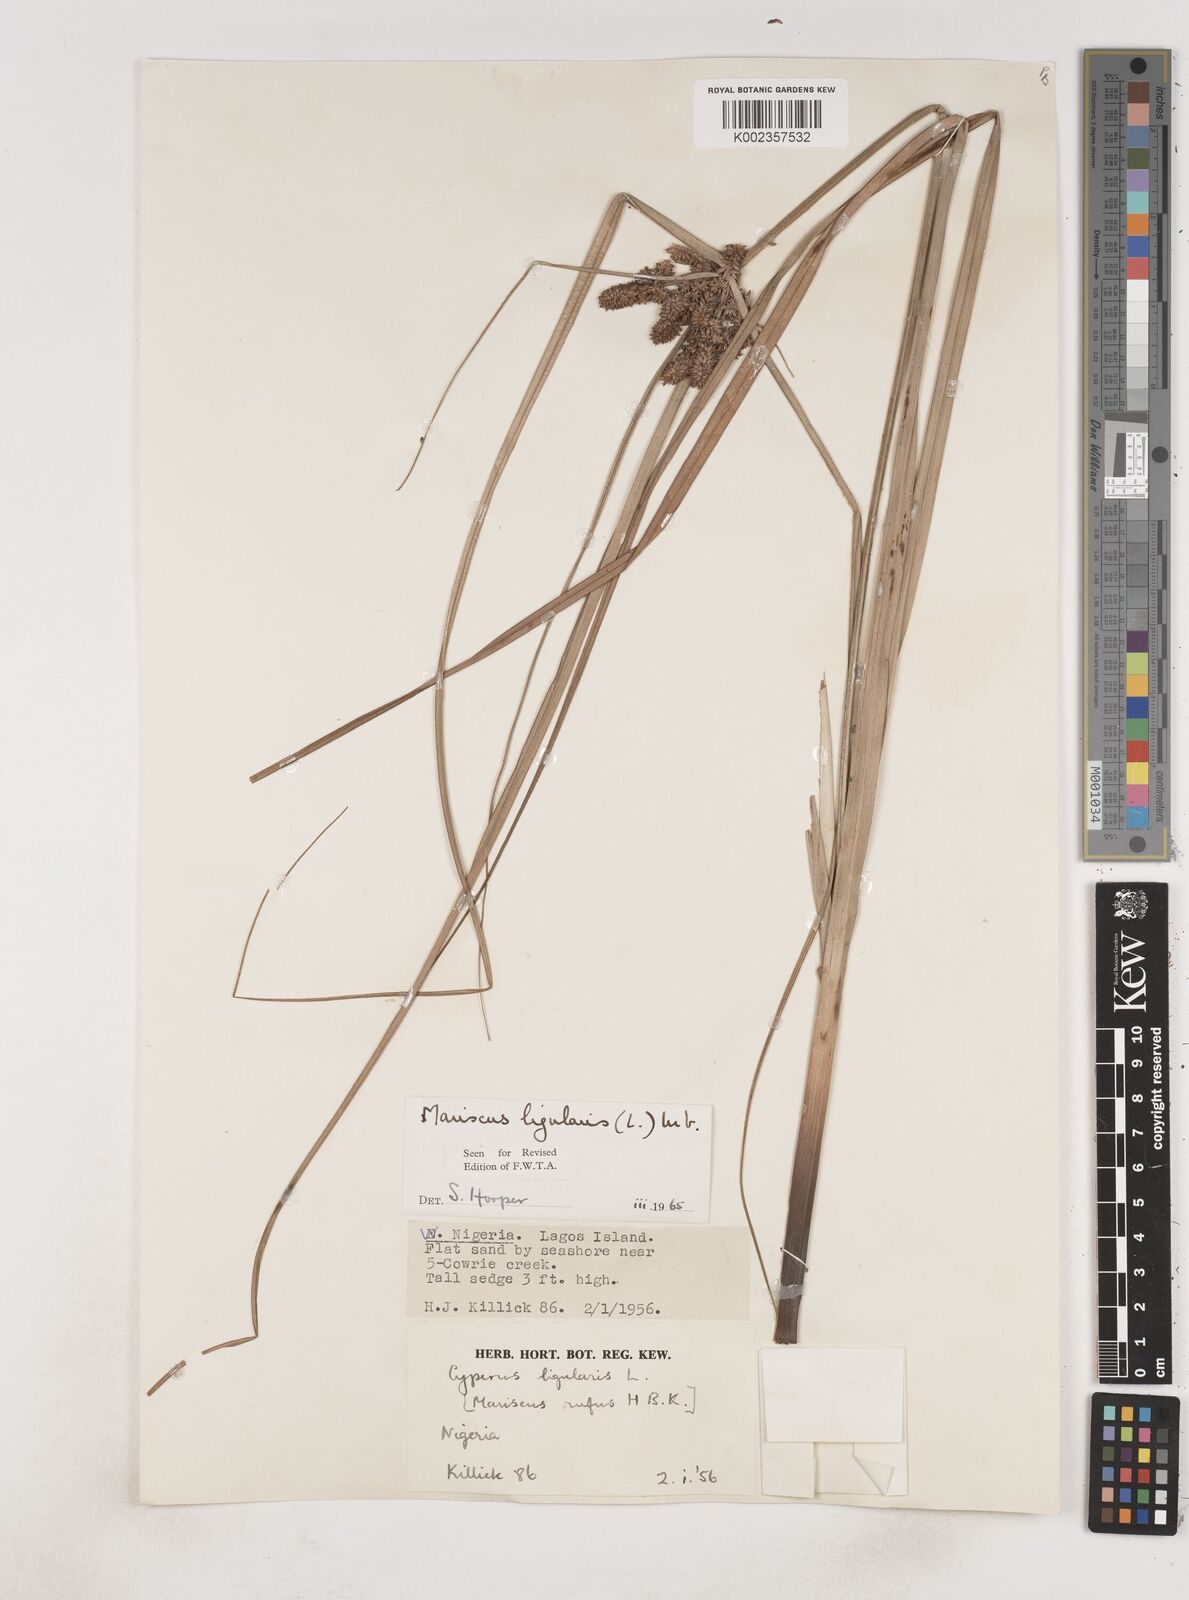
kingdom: Plantae
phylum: Tracheophyta
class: Liliopsida
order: Poales
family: Cyperaceae
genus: Cyperus
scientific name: Cyperus ligularis
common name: Swamp flat sedge
